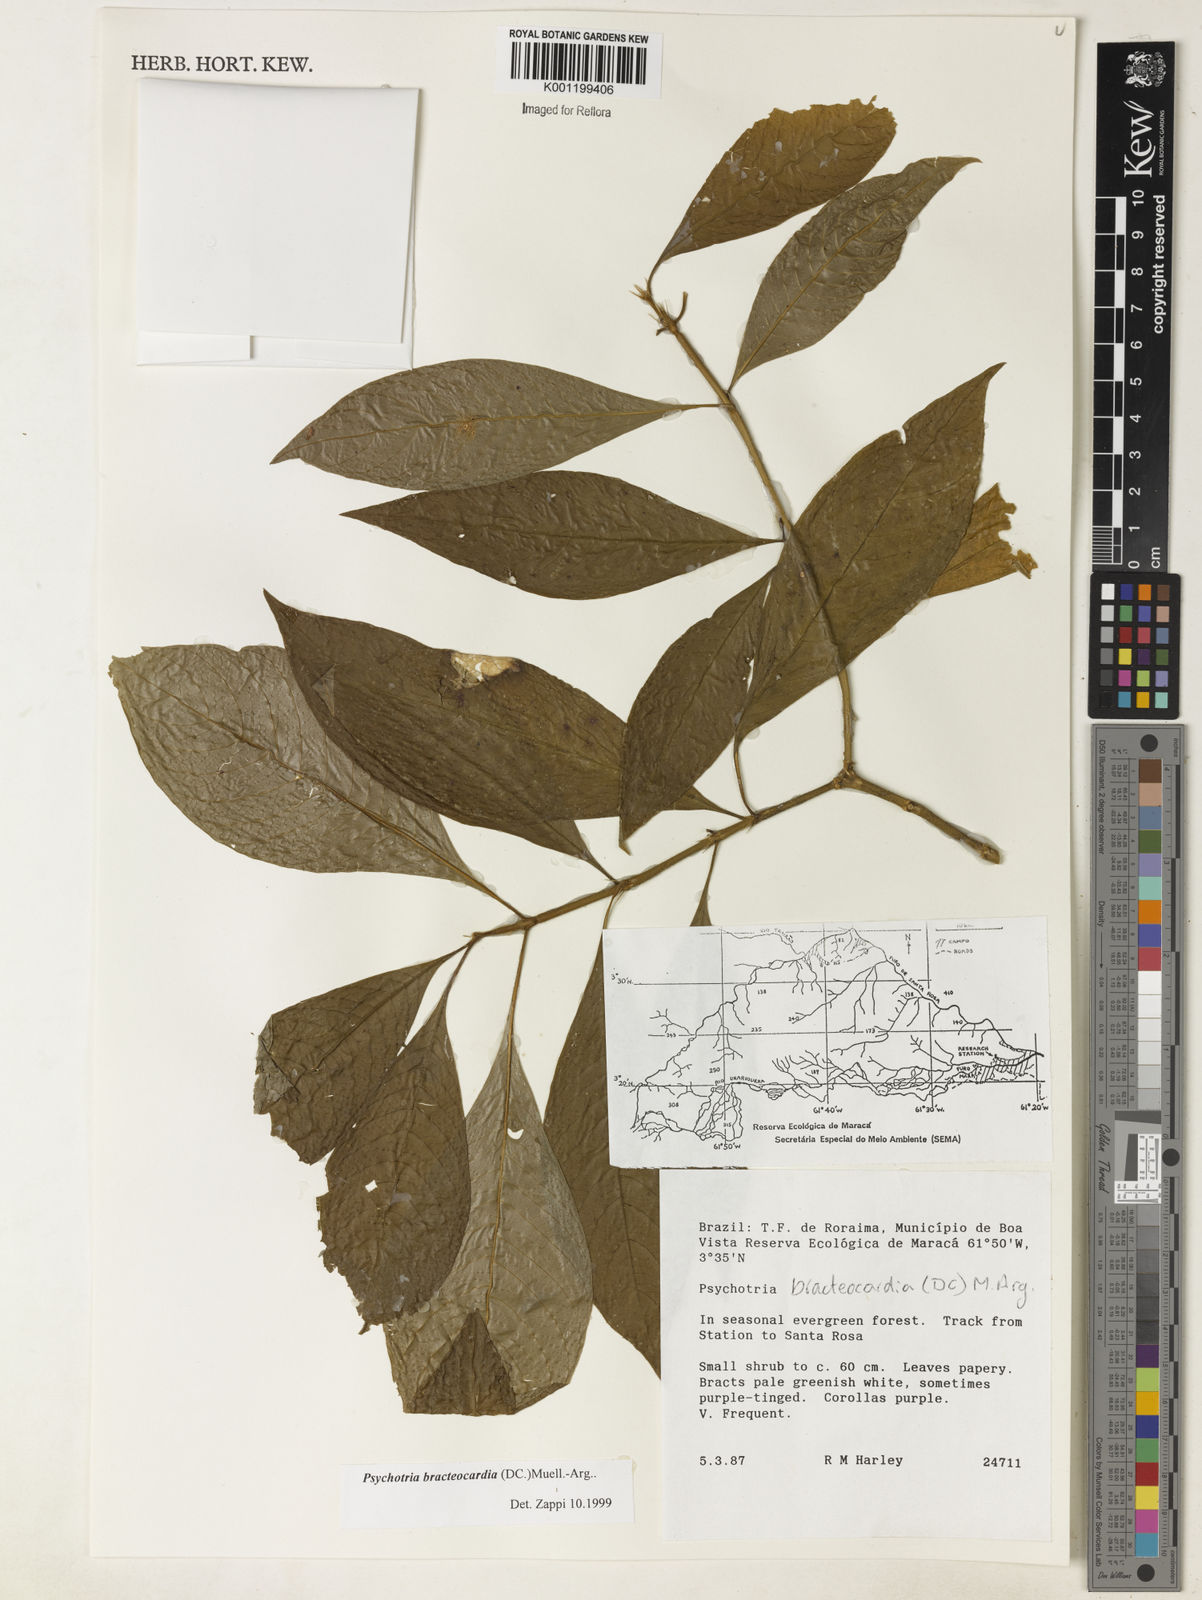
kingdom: Plantae
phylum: Tracheophyta
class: Magnoliopsida
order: Gentianales
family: Rubiaceae
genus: Psychotria
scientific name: Psychotria
